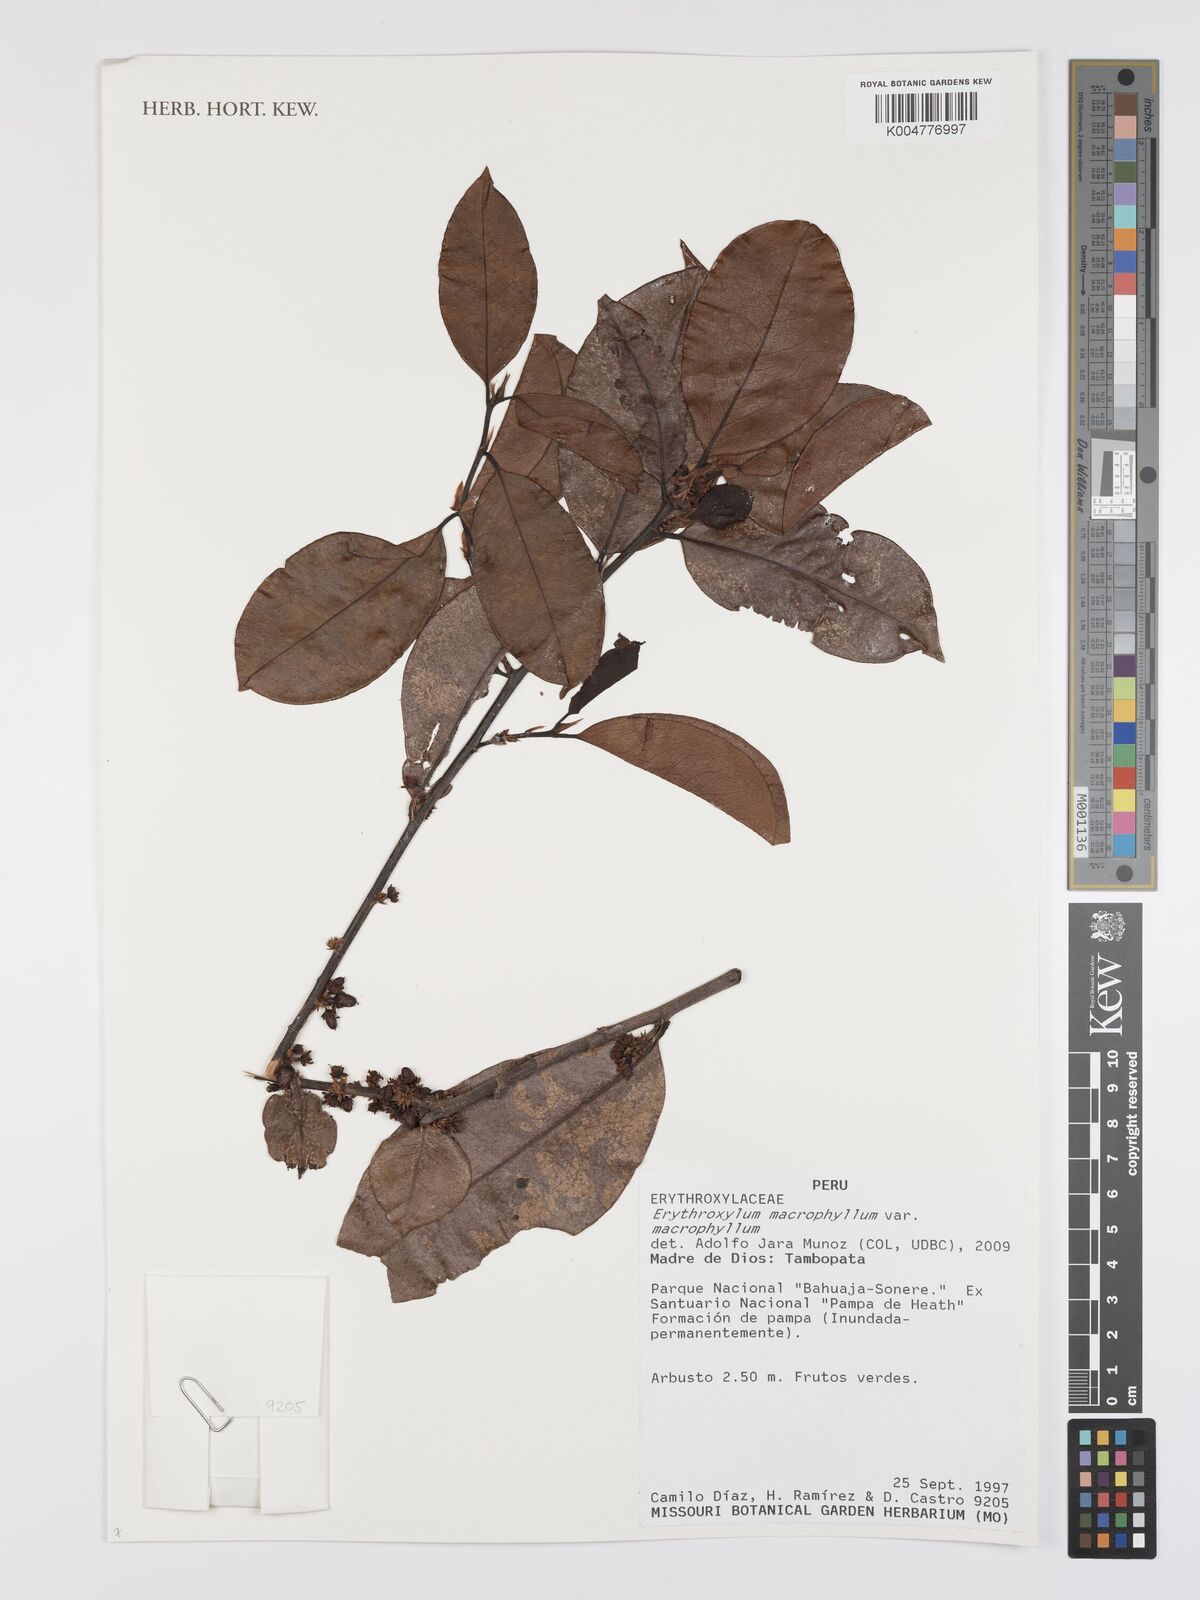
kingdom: Plantae
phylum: Tracheophyta
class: Magnoliopsida
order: Malpighiales
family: Erythroxylaceae
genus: Erythroxylum
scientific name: Erythroxylum
